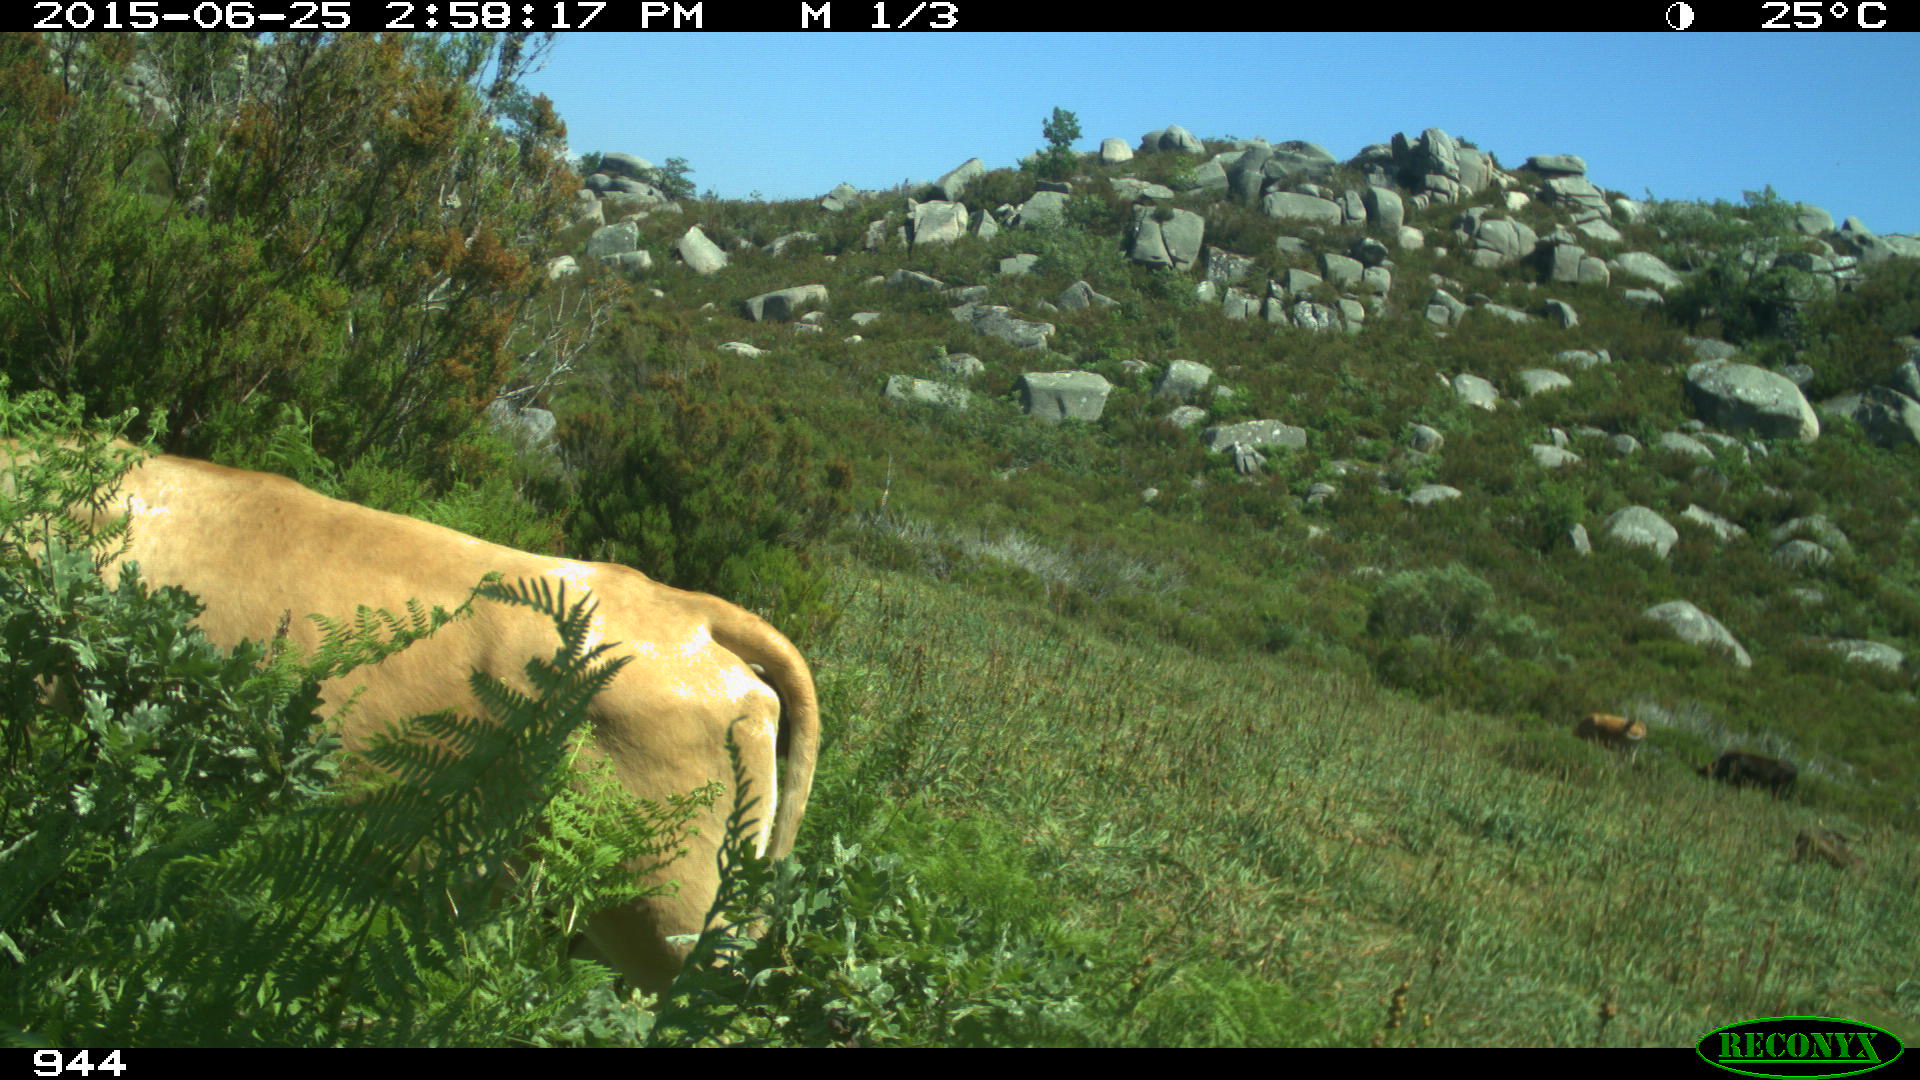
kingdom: Animalia
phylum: Chordata
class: Mammalia
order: Artiodactyla
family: Bovidae
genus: Bos
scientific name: Bos taurus
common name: Domesticated cattle
